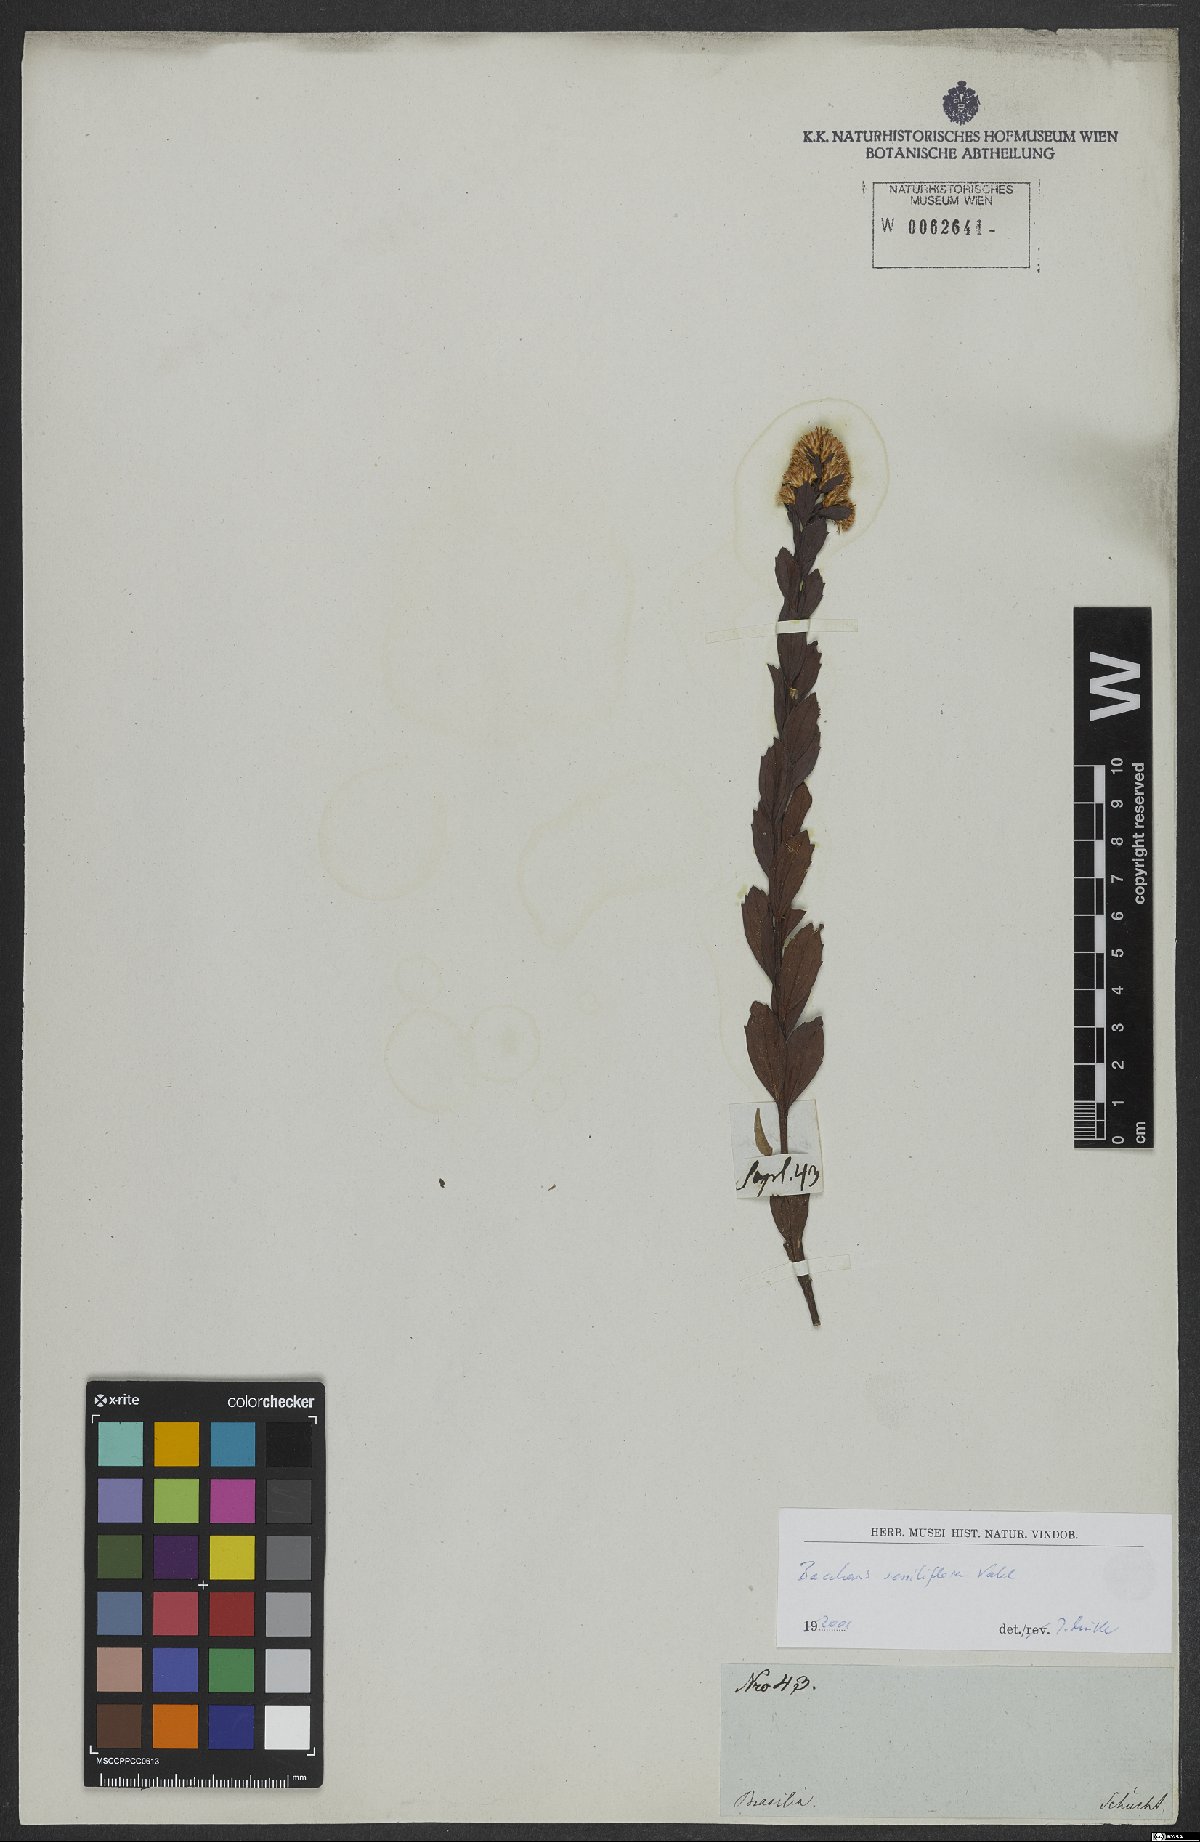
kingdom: Plantae
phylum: Tracheophyta
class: Magnoliopsida
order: Asterales
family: Asteraceae
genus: Baccharis
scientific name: Baccharis sessiliflora
